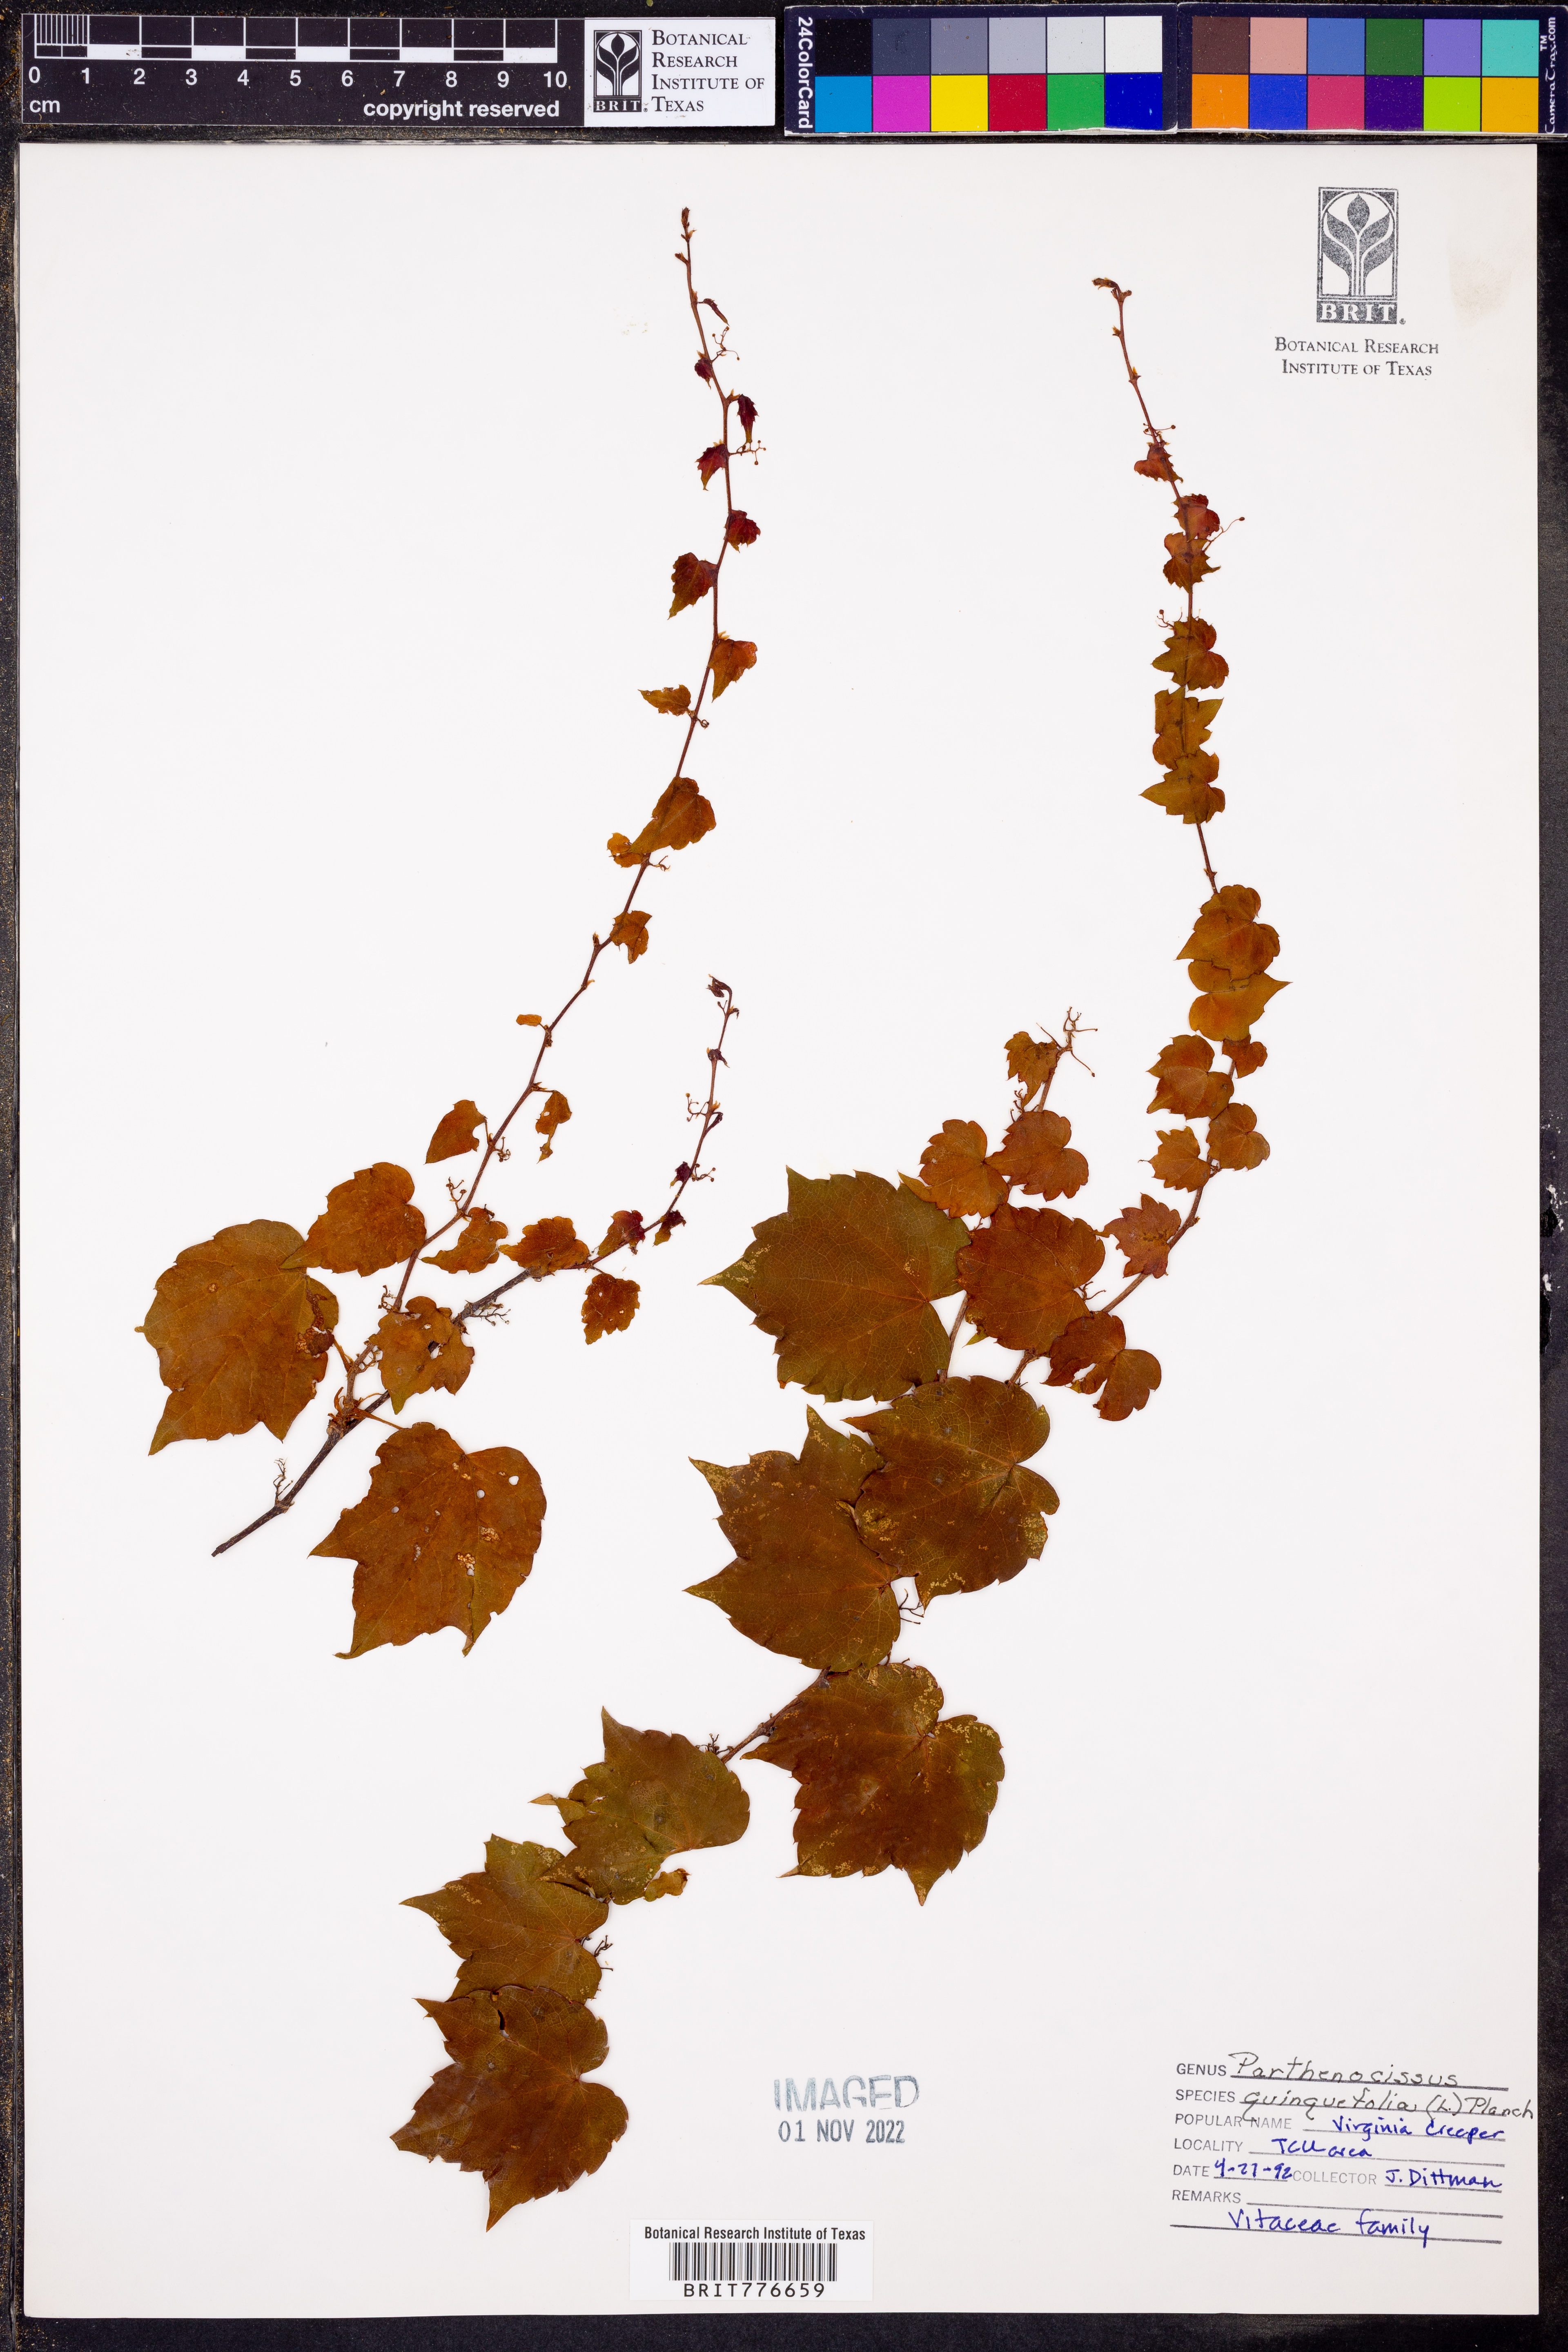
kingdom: Plantae
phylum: Tracheophyta
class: Magnoliopsida
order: Vitales
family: Vitaceae
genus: Parthenocissus
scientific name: Parthenocissus quinquefolia
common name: Virginia-creeper
